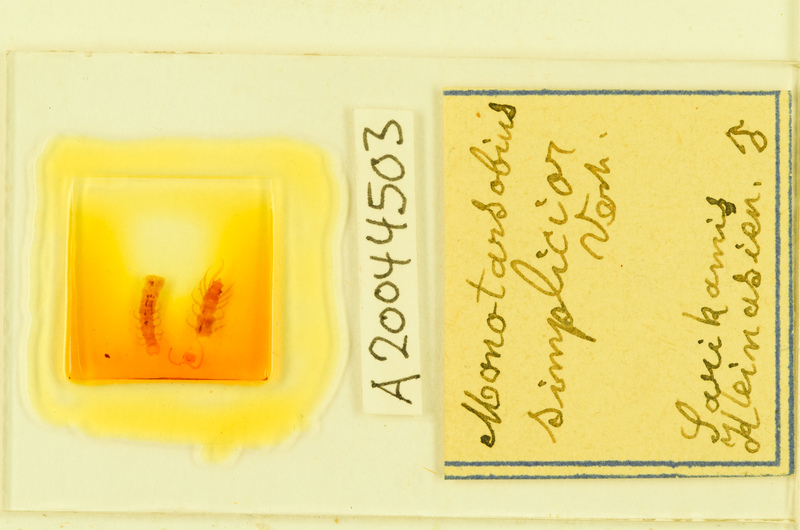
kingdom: Animalia
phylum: Arthropoda
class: Chilopoda
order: Lithobiomorpha
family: Lithobiidae
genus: Monotarsobius
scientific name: Monotarsobius
